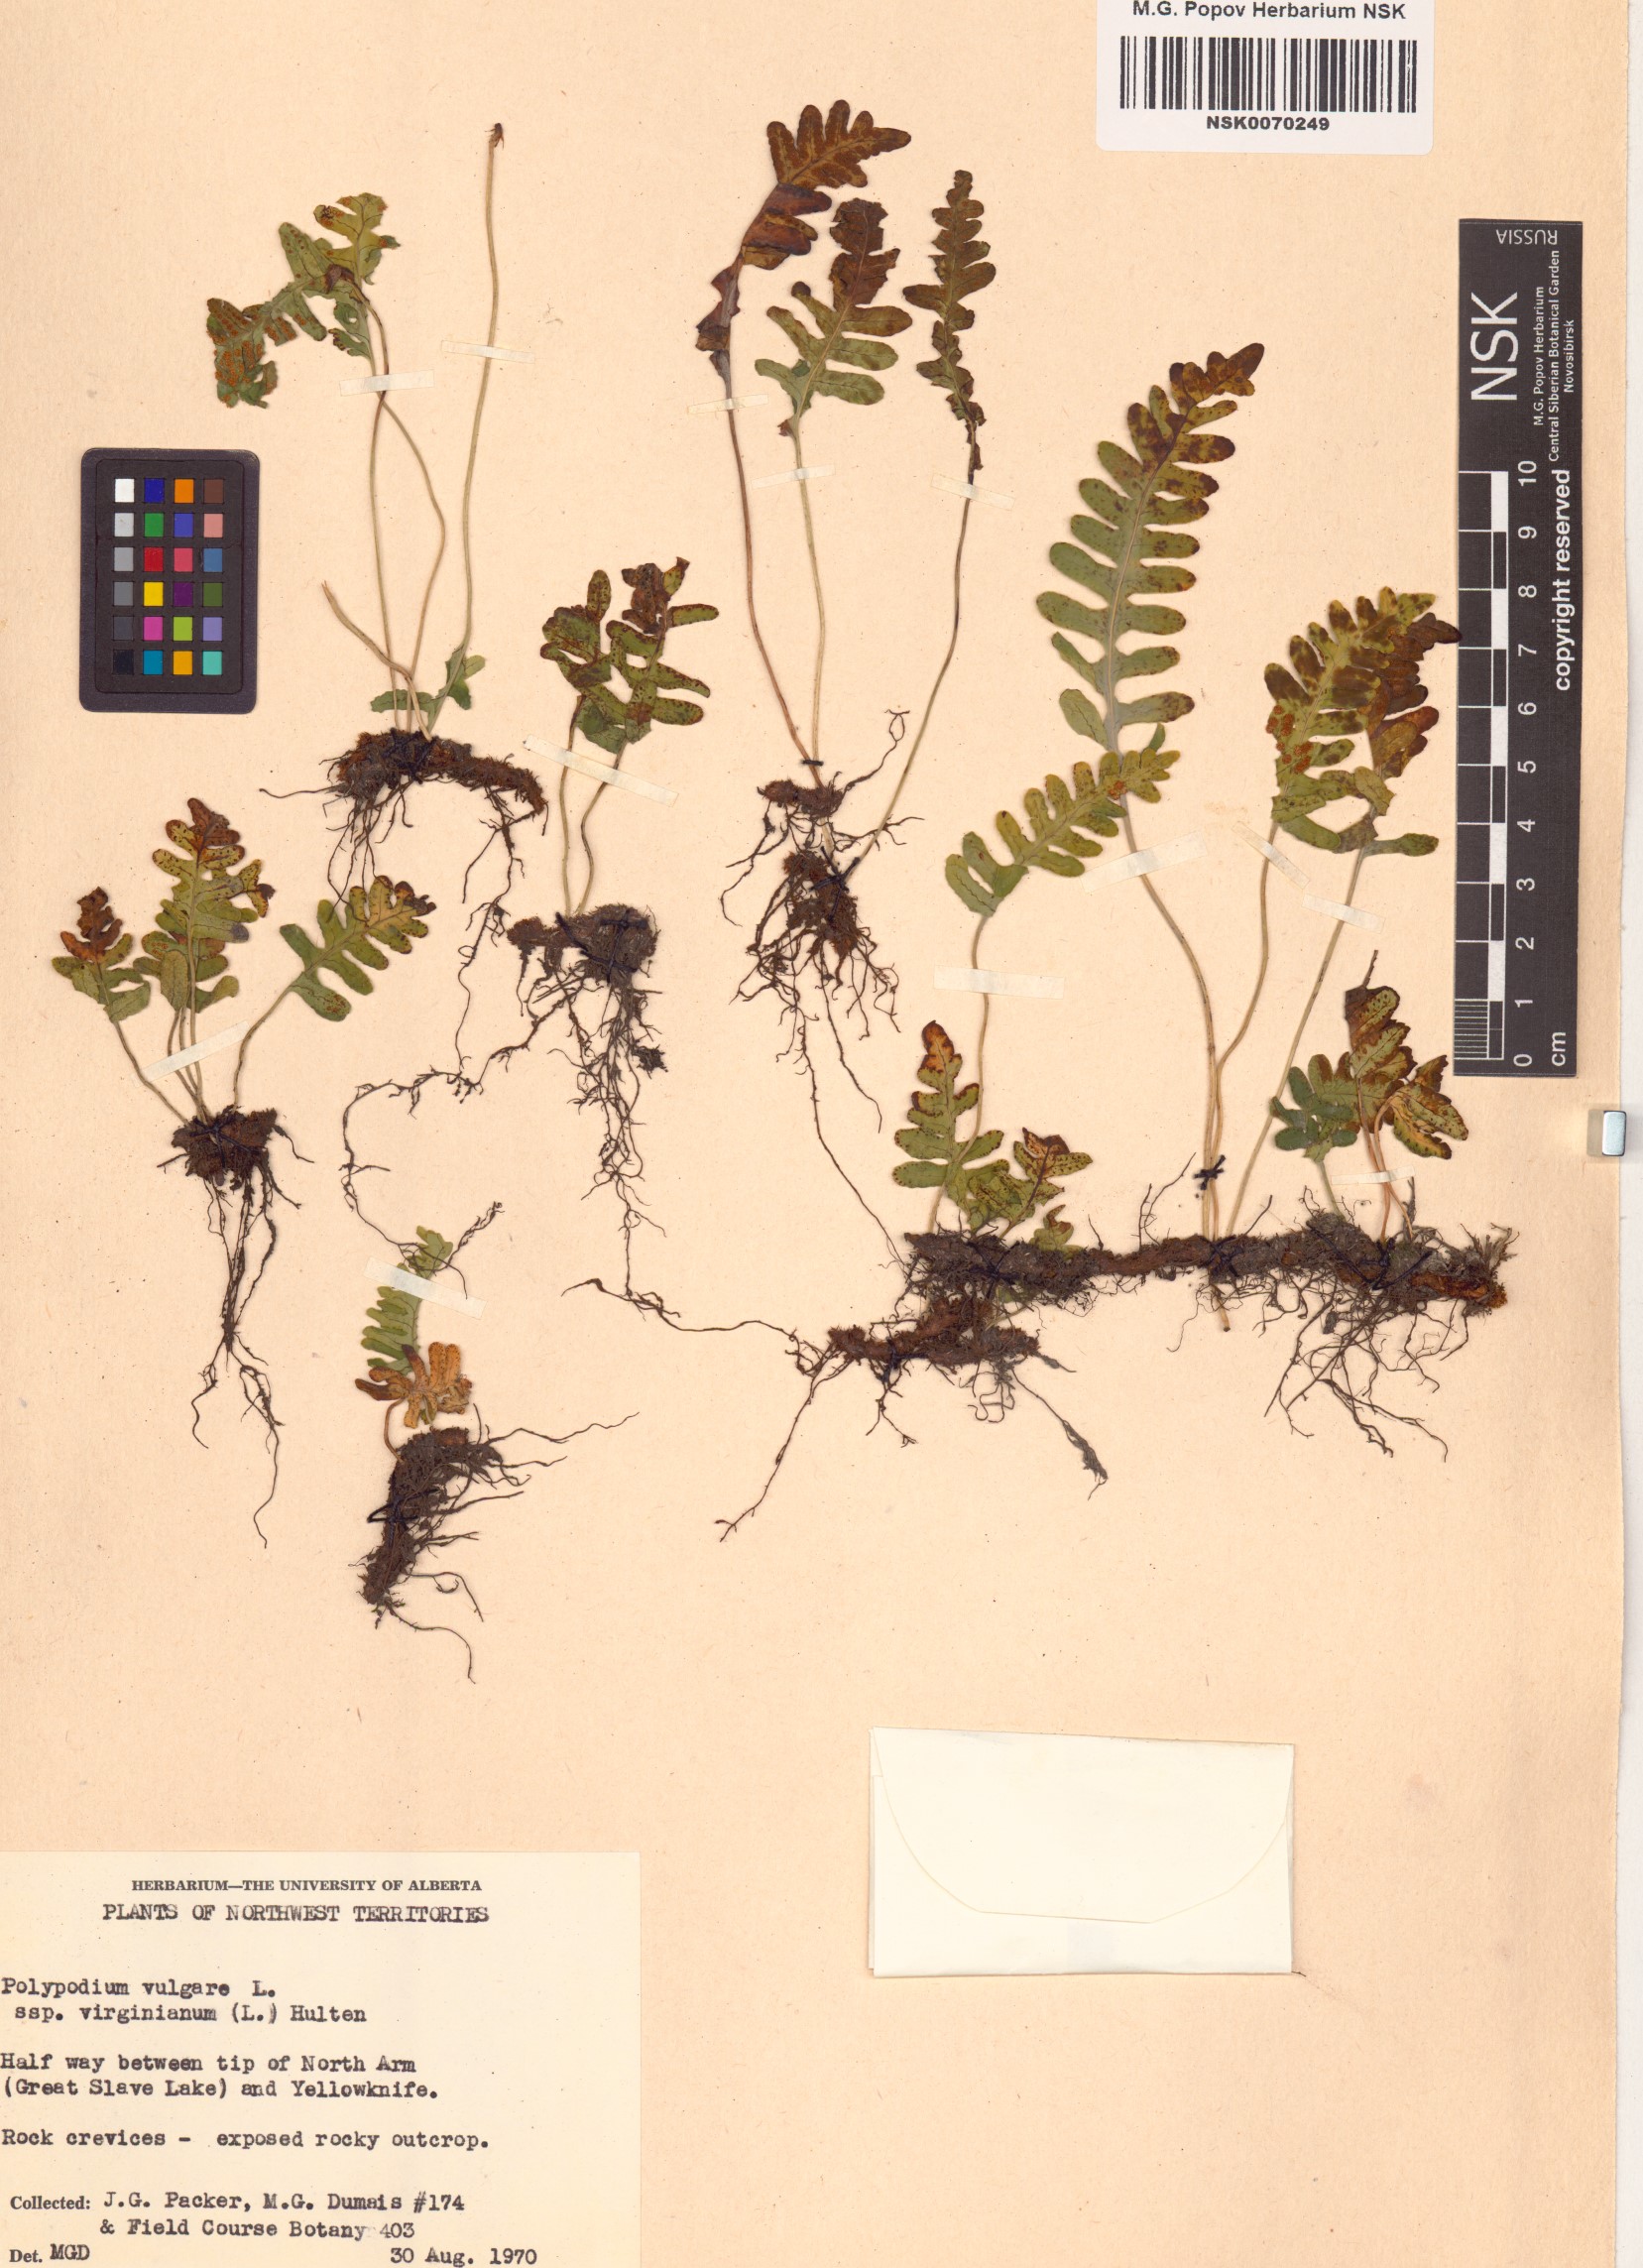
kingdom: Plantae
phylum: Tracheophyta
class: Polypodiopsida
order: Polypodiales
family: Polypodiaceae
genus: Polypodium
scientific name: Polypodium virginianum
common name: American wall fern
